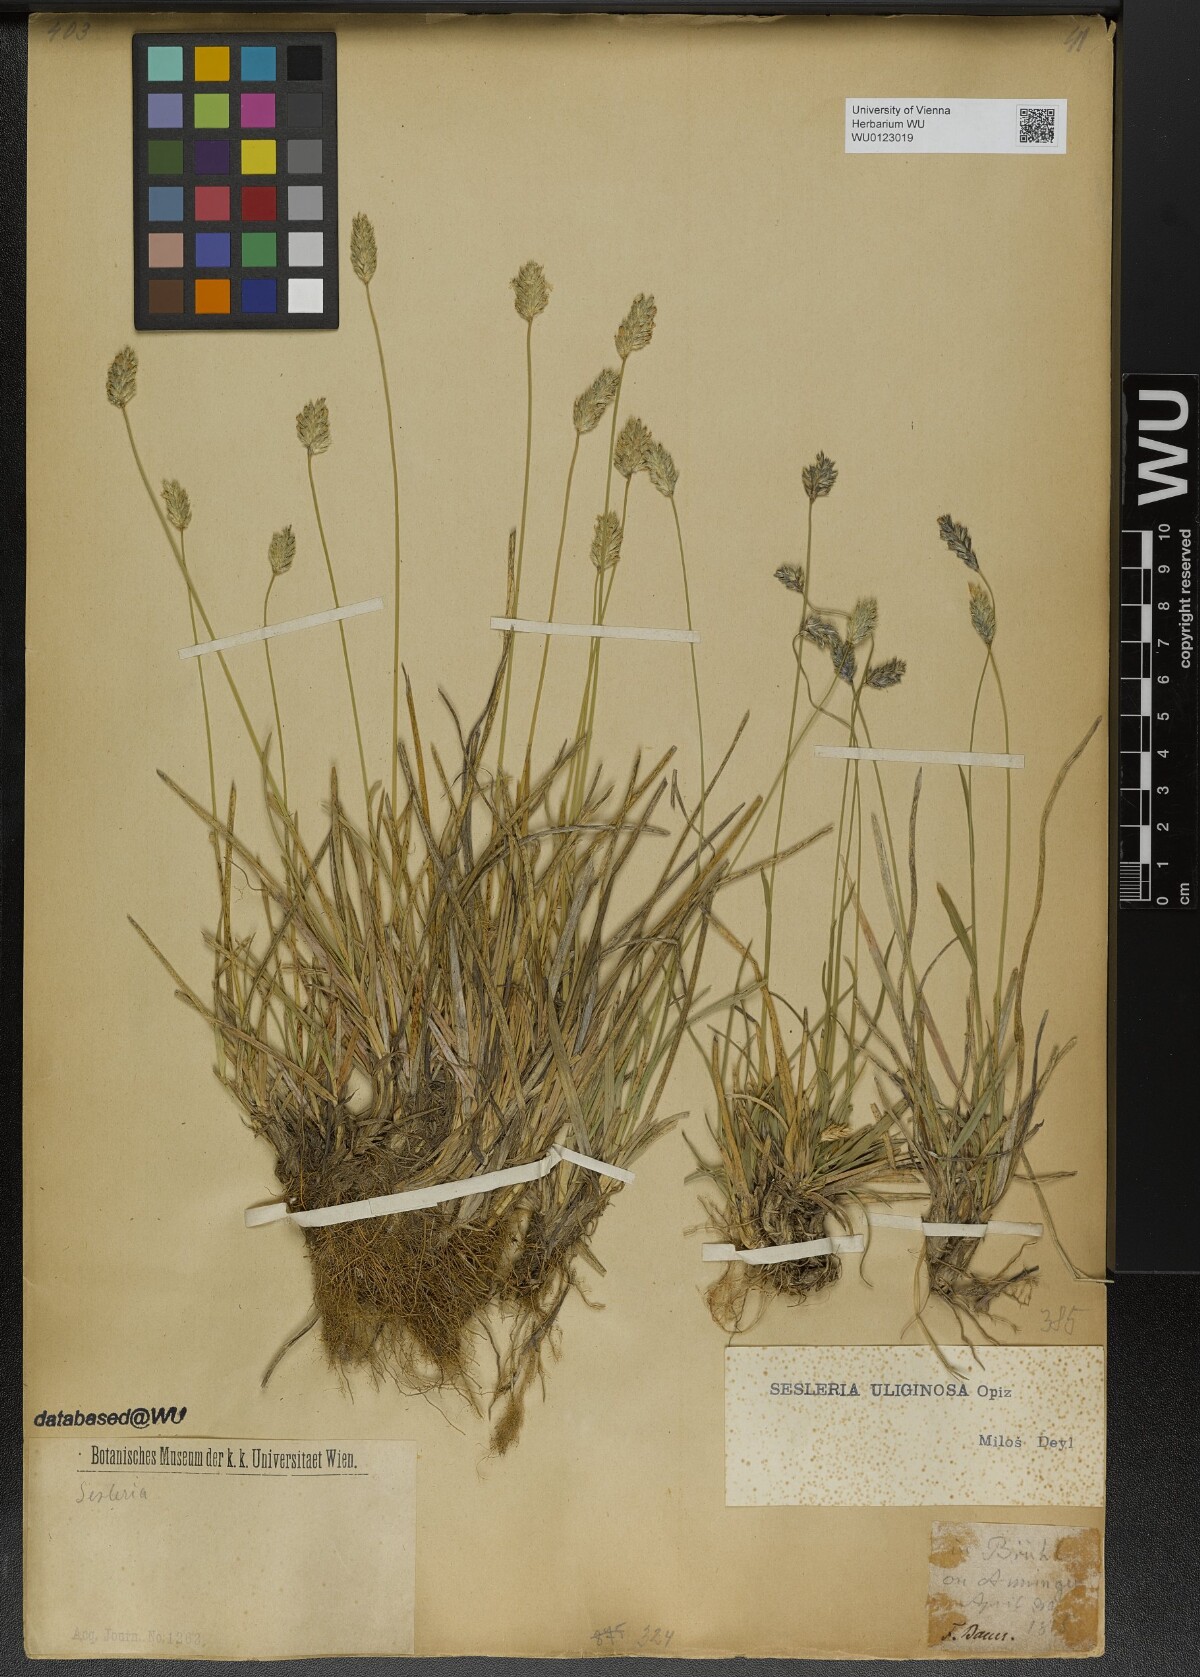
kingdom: Plantae
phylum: Tracheophyta
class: Liliopsida
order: Poales
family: Poaceae
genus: Sesleria
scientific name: Sesleria uliginosa
